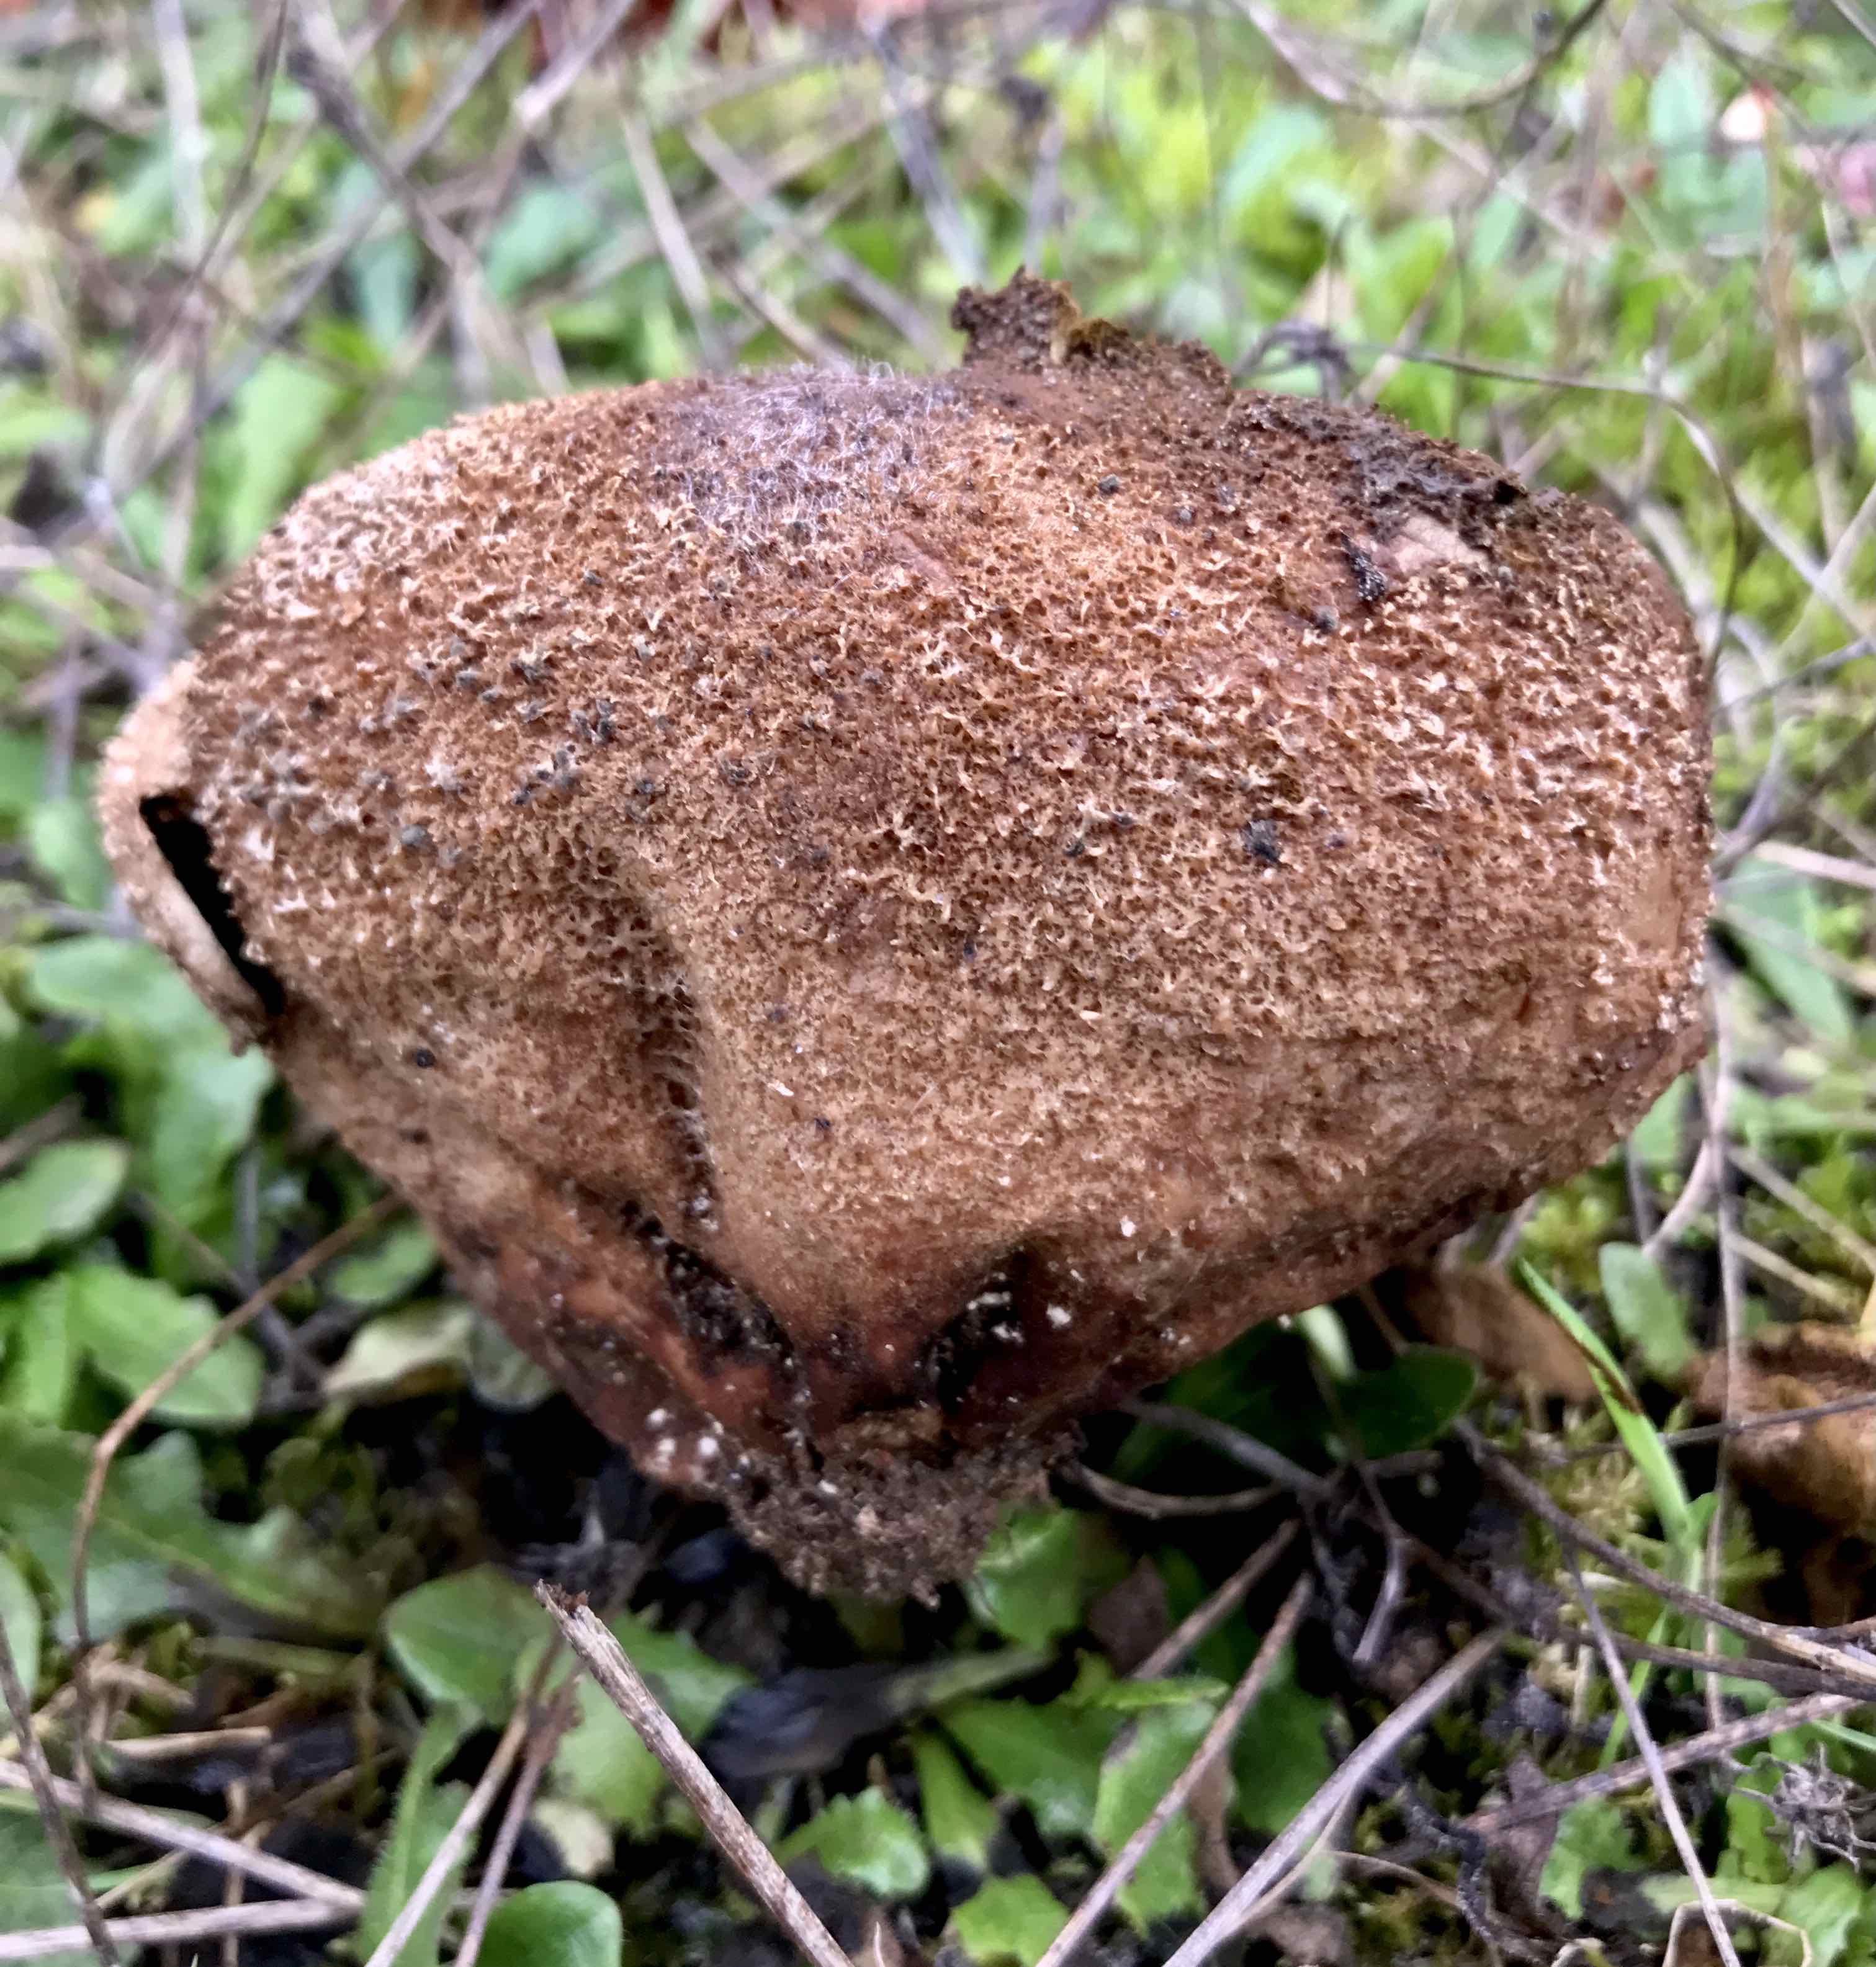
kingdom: Fungi
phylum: Basidiomycota
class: Agaricomycetes
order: Agaricales
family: Lycoperdaceae
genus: Bovistella
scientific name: Bovistella utriformis
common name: skællet støvbold
